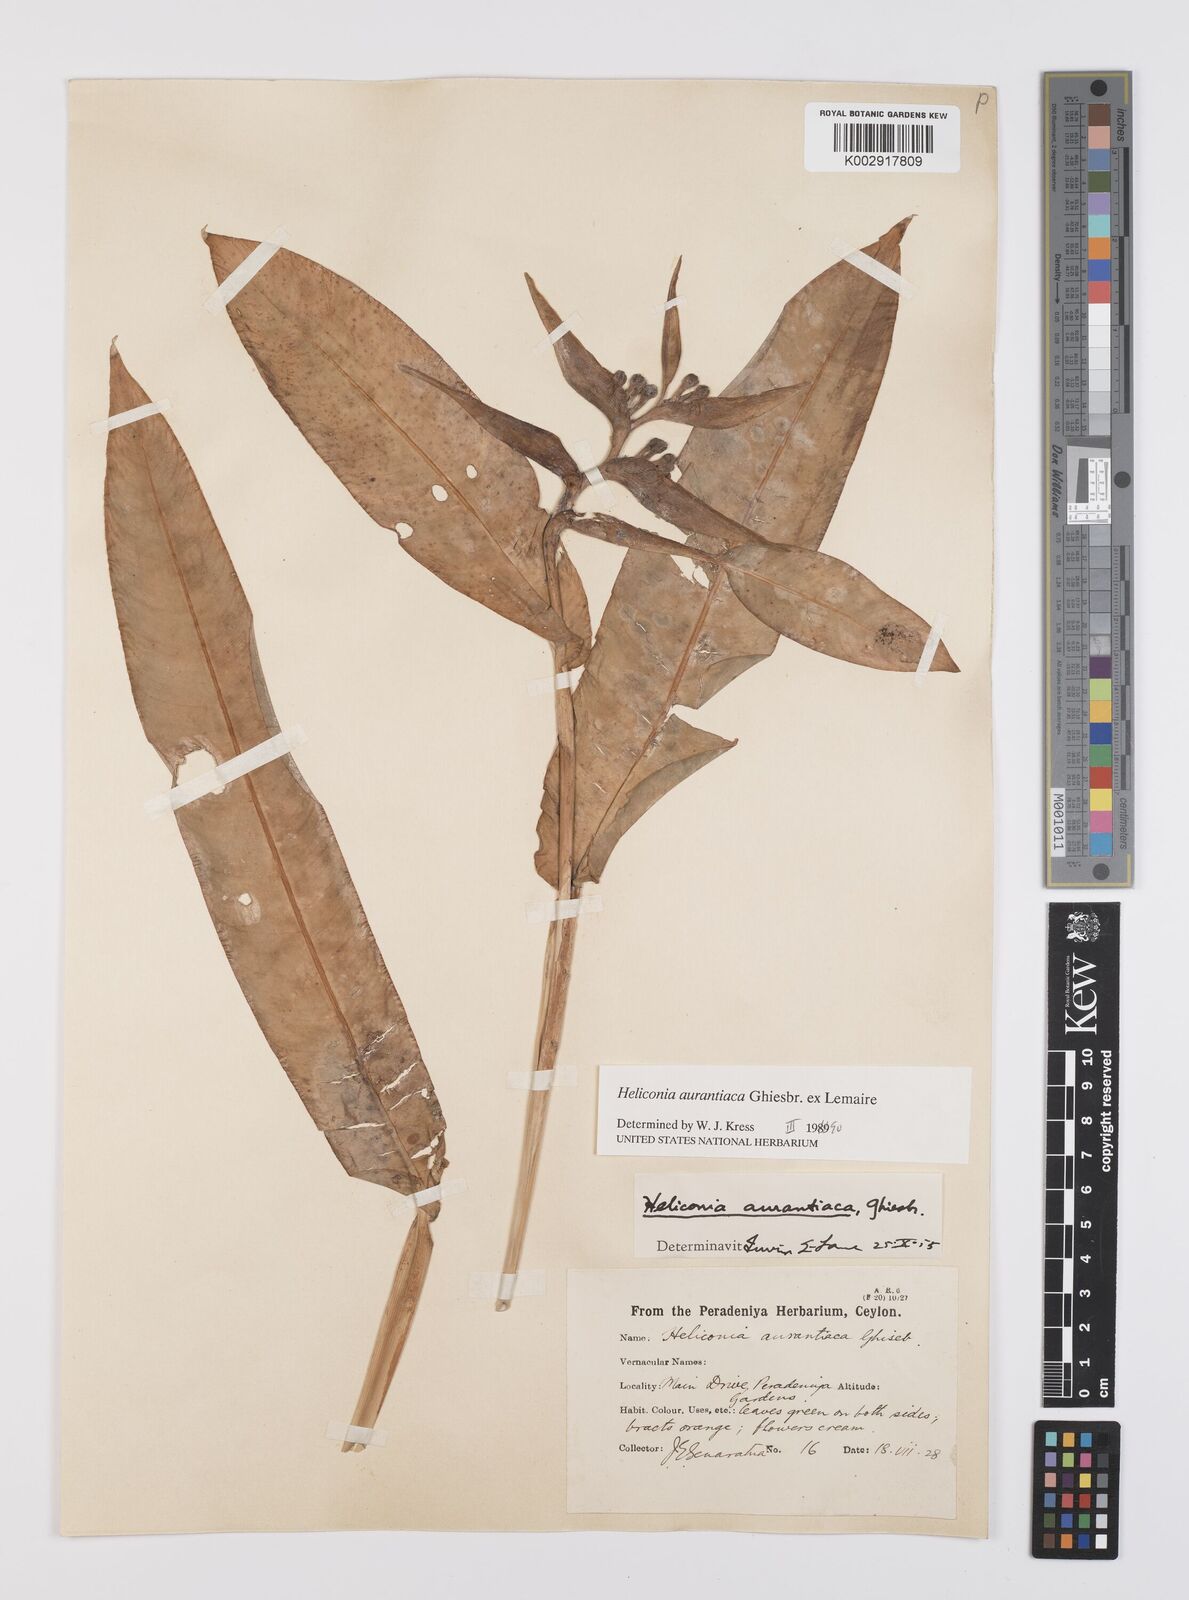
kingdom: Plantae
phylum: Tracheophyta
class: Liliopsida
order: Zingiberales
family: Heliconiaceae
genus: Heliconia
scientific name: Heliconia aurantiaca
